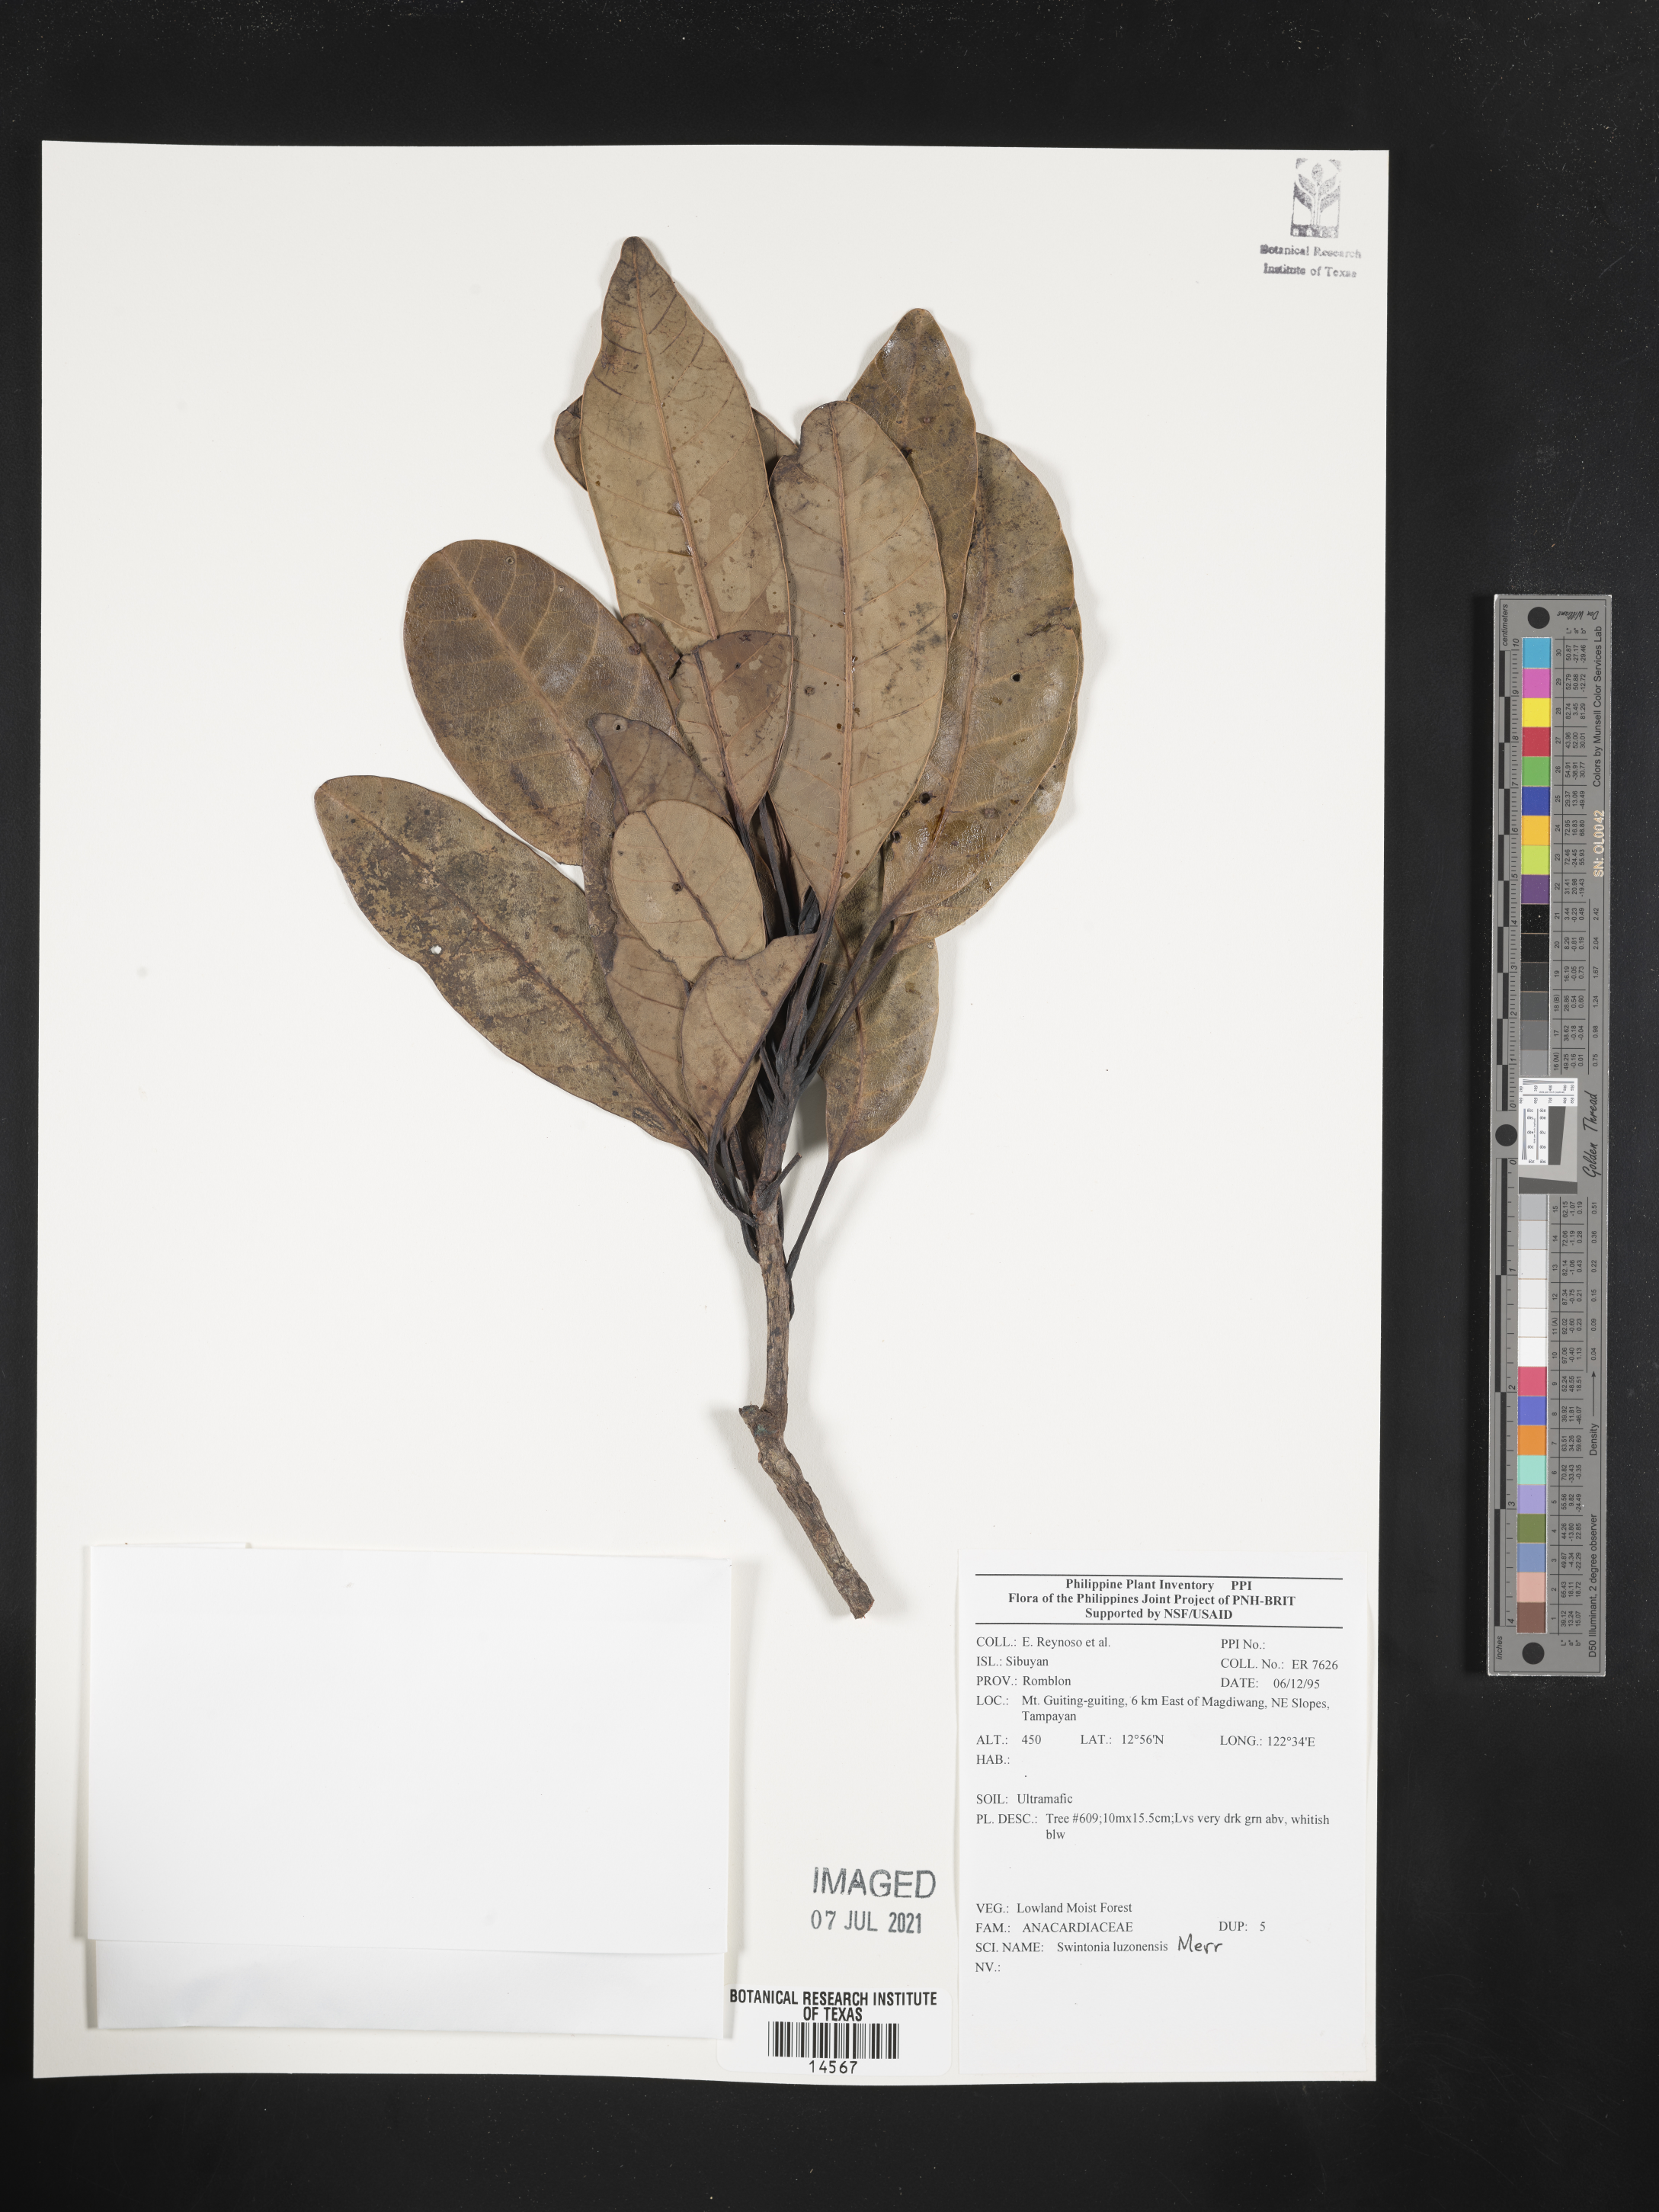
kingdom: Plantae
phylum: Tracheophyta
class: Magnoliopsida
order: Sapindales
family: Anacardiaceae
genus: Swintonia
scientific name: Swintonia acuta
